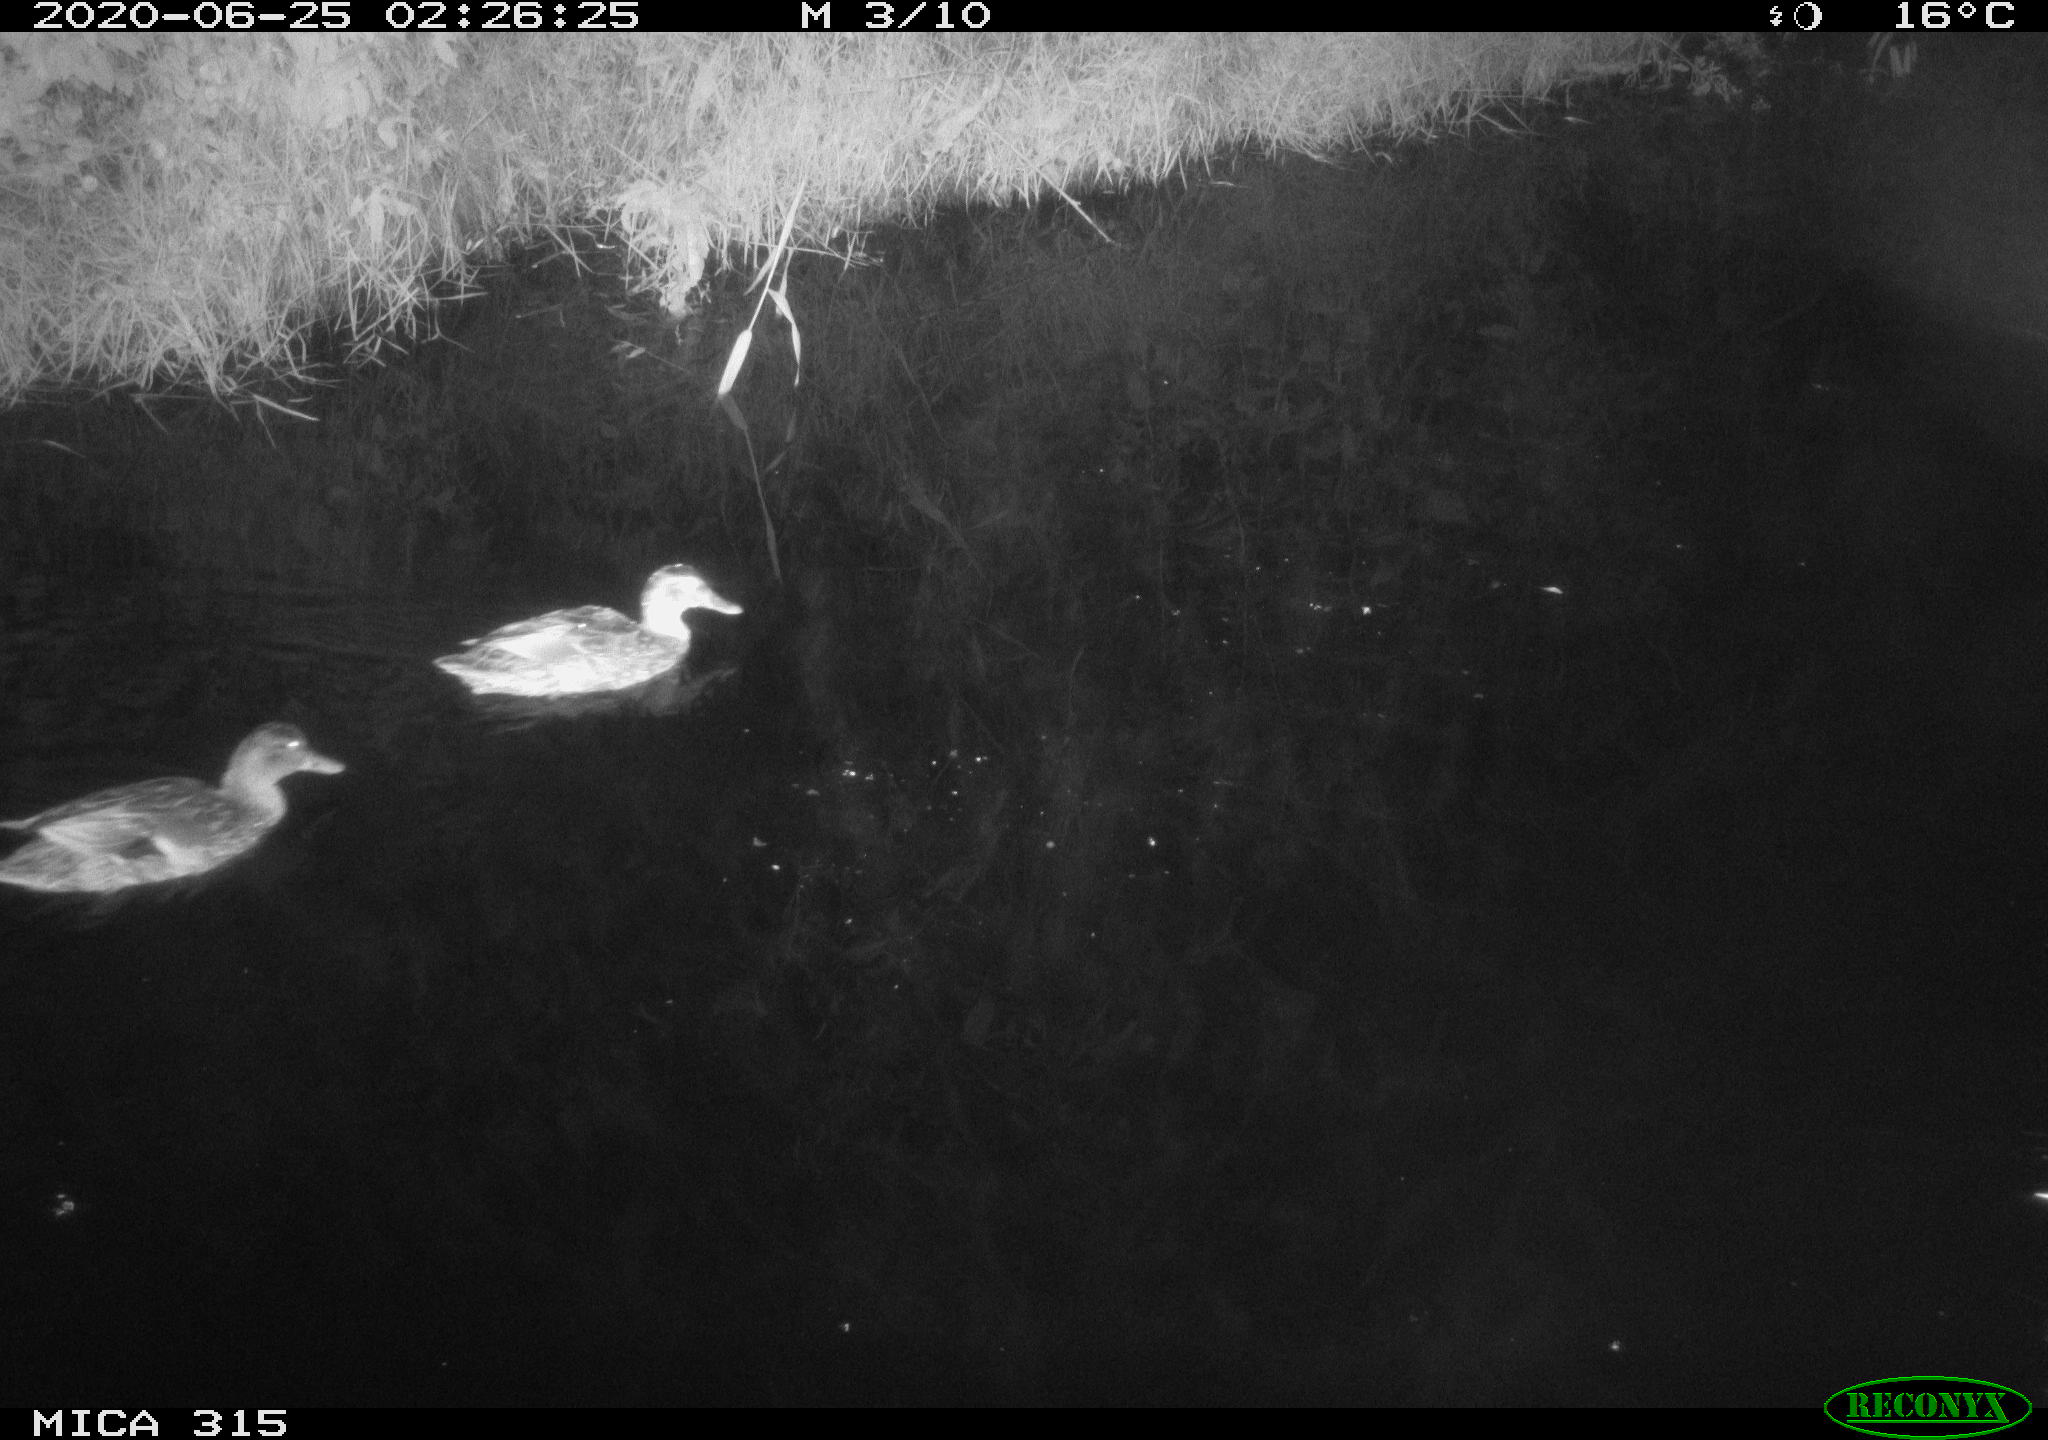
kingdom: Animalia
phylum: Chordata
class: Aves
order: Anseriformes
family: Anatidae
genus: Anas
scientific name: Anas platyrhynchos
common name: Mallard
